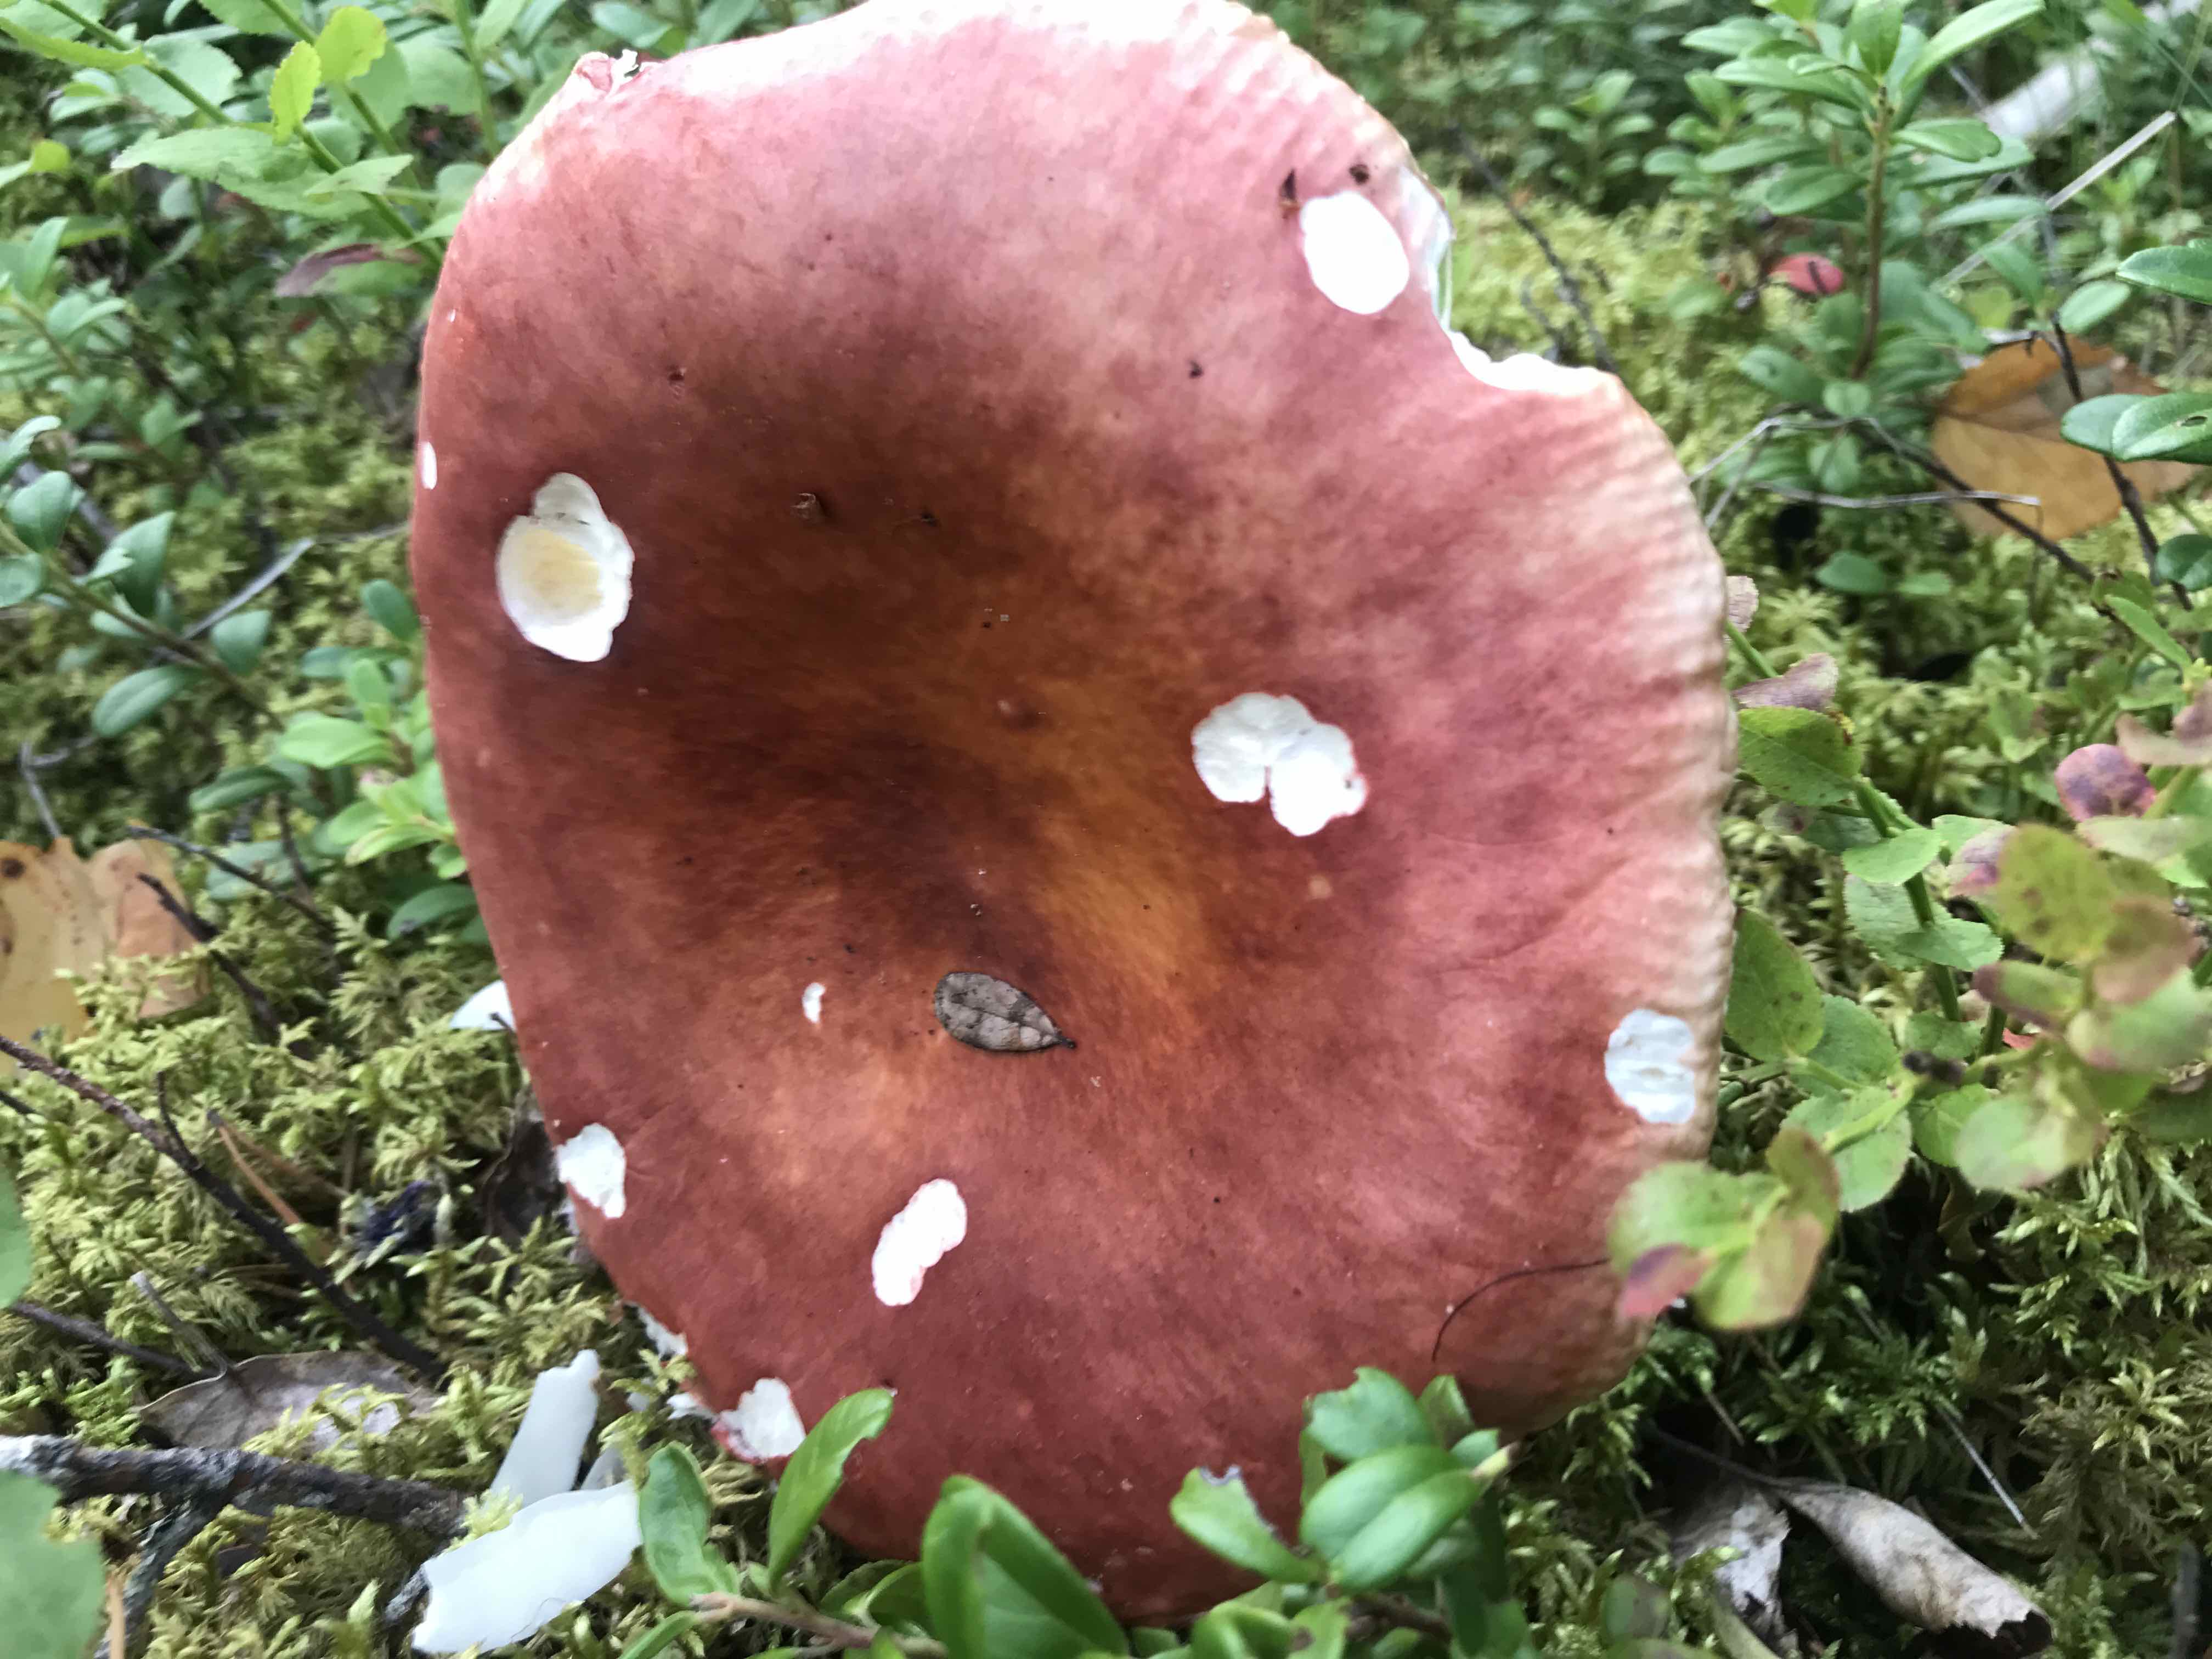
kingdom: Fungi
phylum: Basidiomycota
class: Agaricomycetes
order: Russulales
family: Russulaceae
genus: Russula
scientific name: Russula
